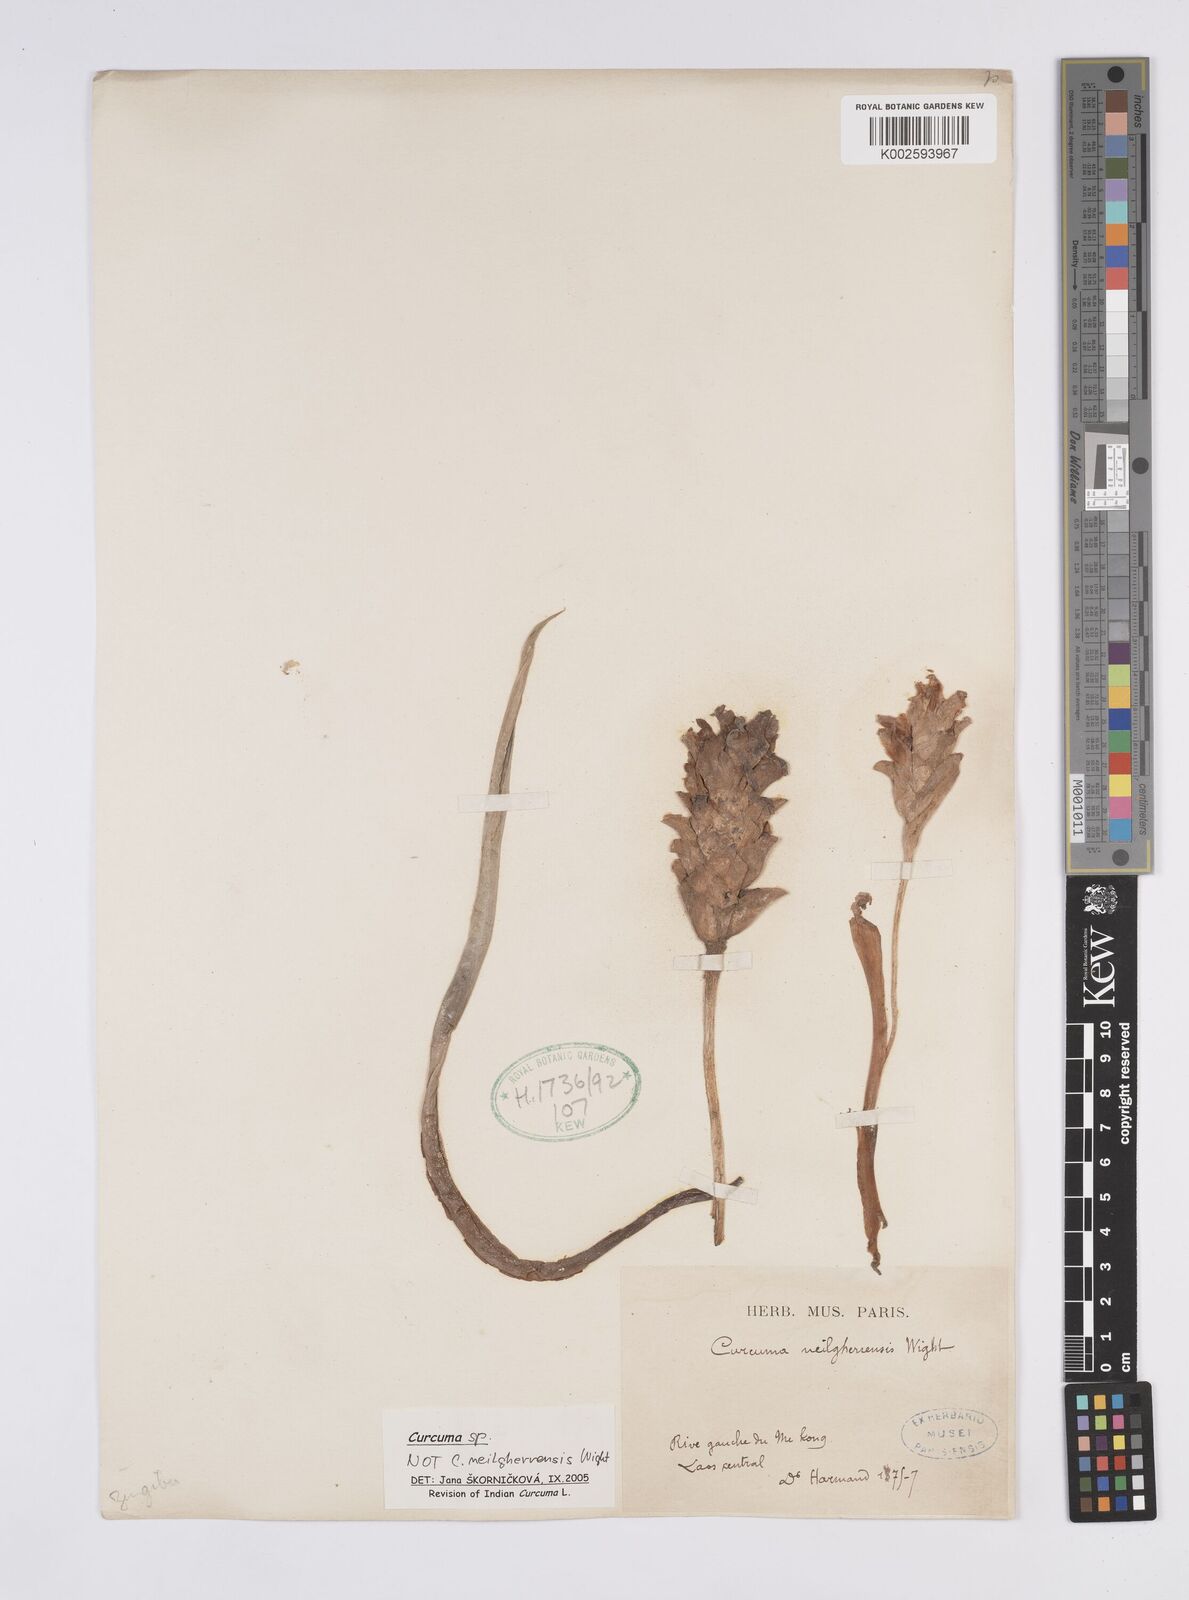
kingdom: Plantae
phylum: Tracheophyta
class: Liliopsida
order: Zingiberales
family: Zingiberaceae
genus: Curcuma
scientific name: Curcuma
